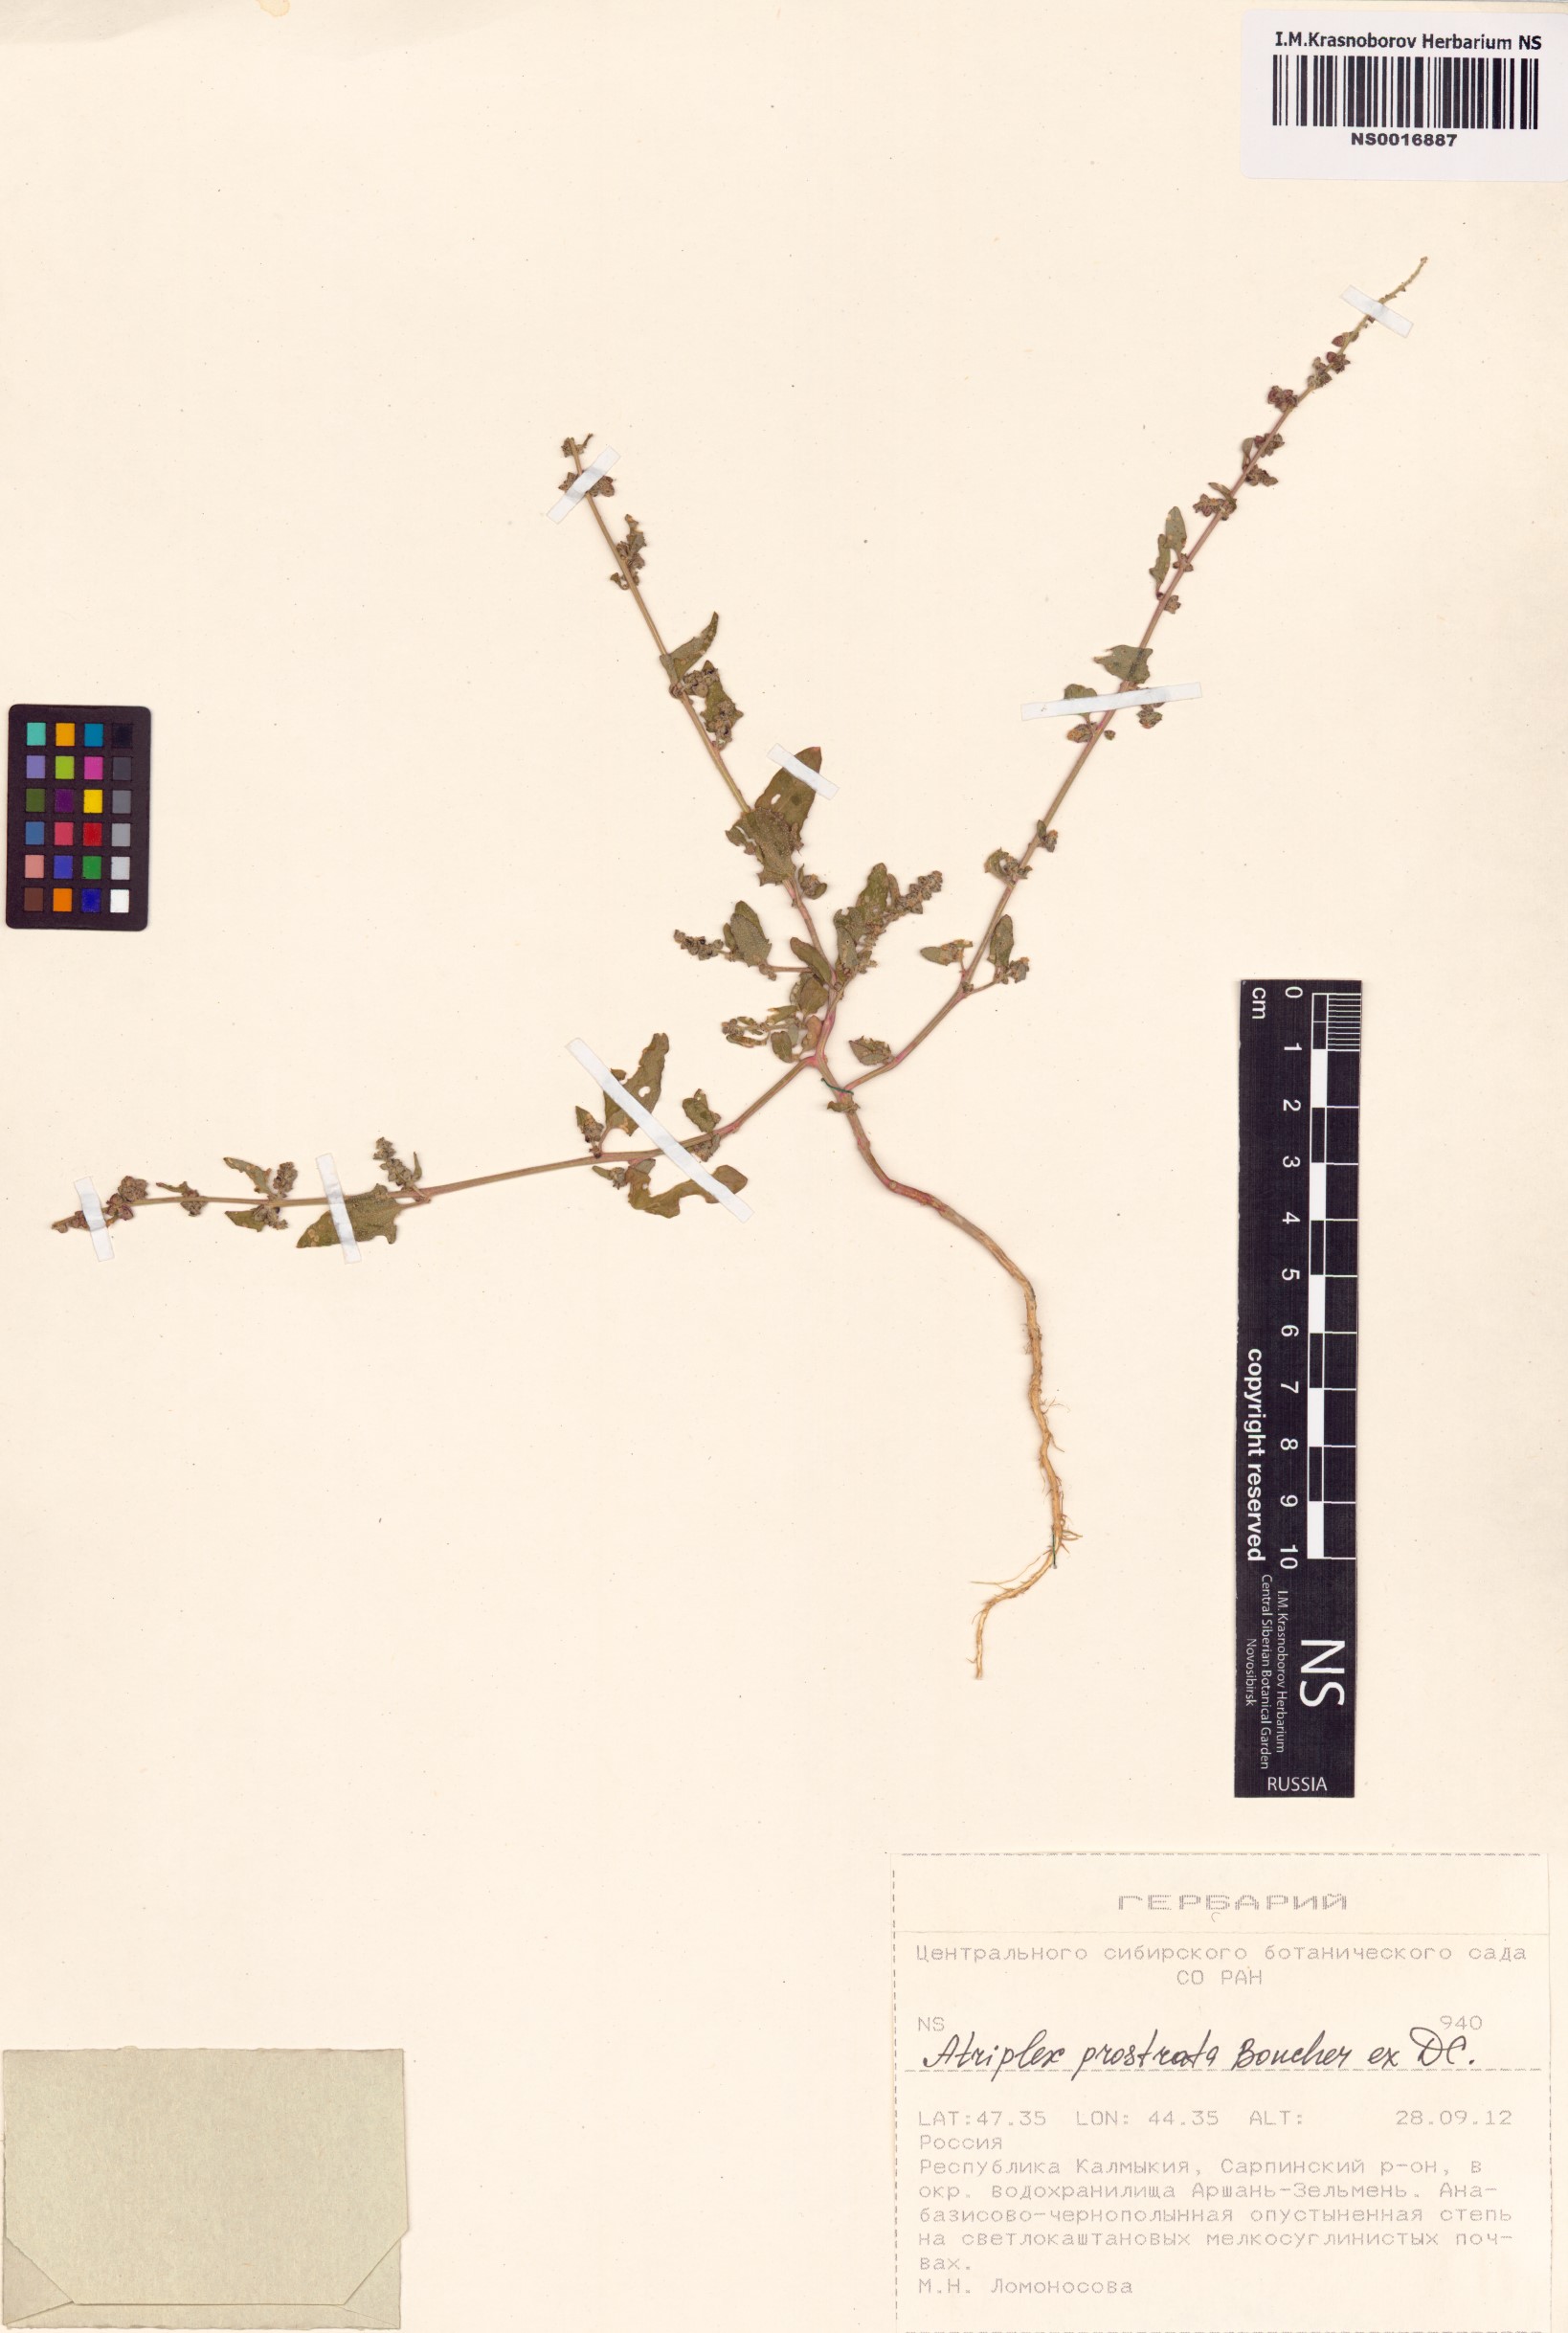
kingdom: Plantae
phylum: Tracheophyta
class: Magnoliopsida
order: Caryophyllales
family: Amaranthaceae
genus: Atriplex
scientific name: Atriplex prostrata
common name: Spear-leaved orache
